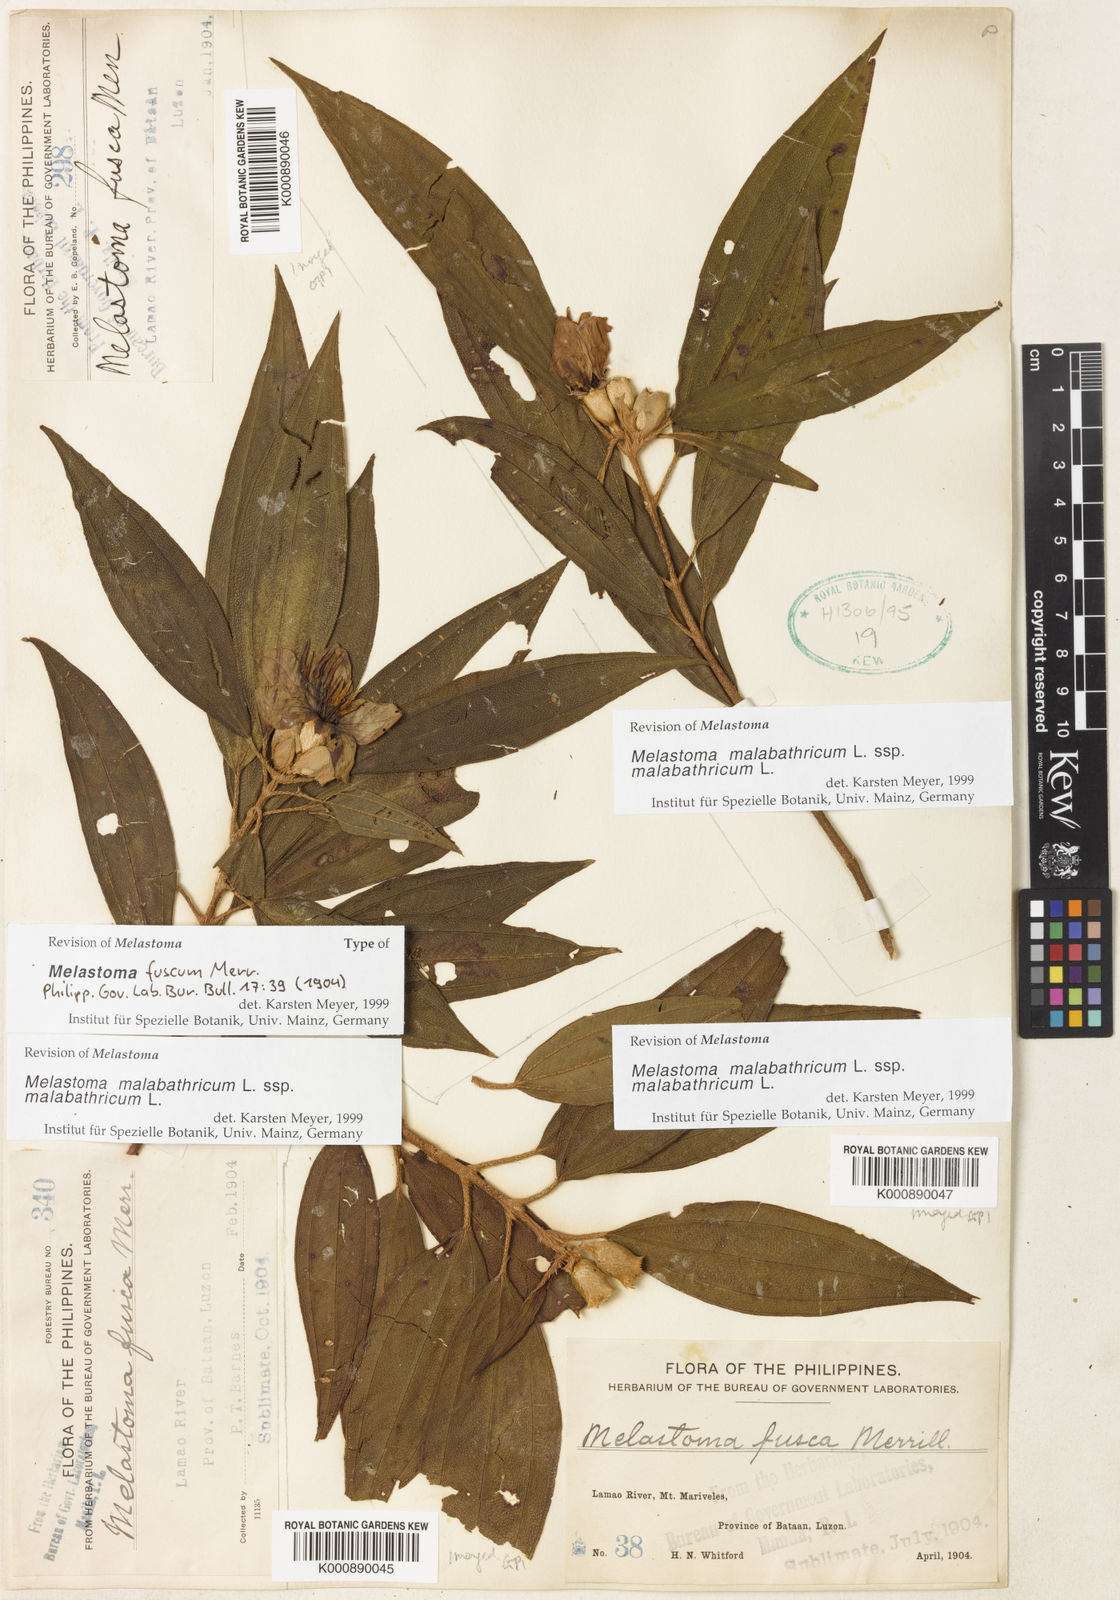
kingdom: Plantae
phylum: Tracheophyta
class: Magnoliopsida
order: Myrtales
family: Melastomataceae
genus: Melastoma
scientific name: Melastoma malabathricum
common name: Indian-rhododendron
